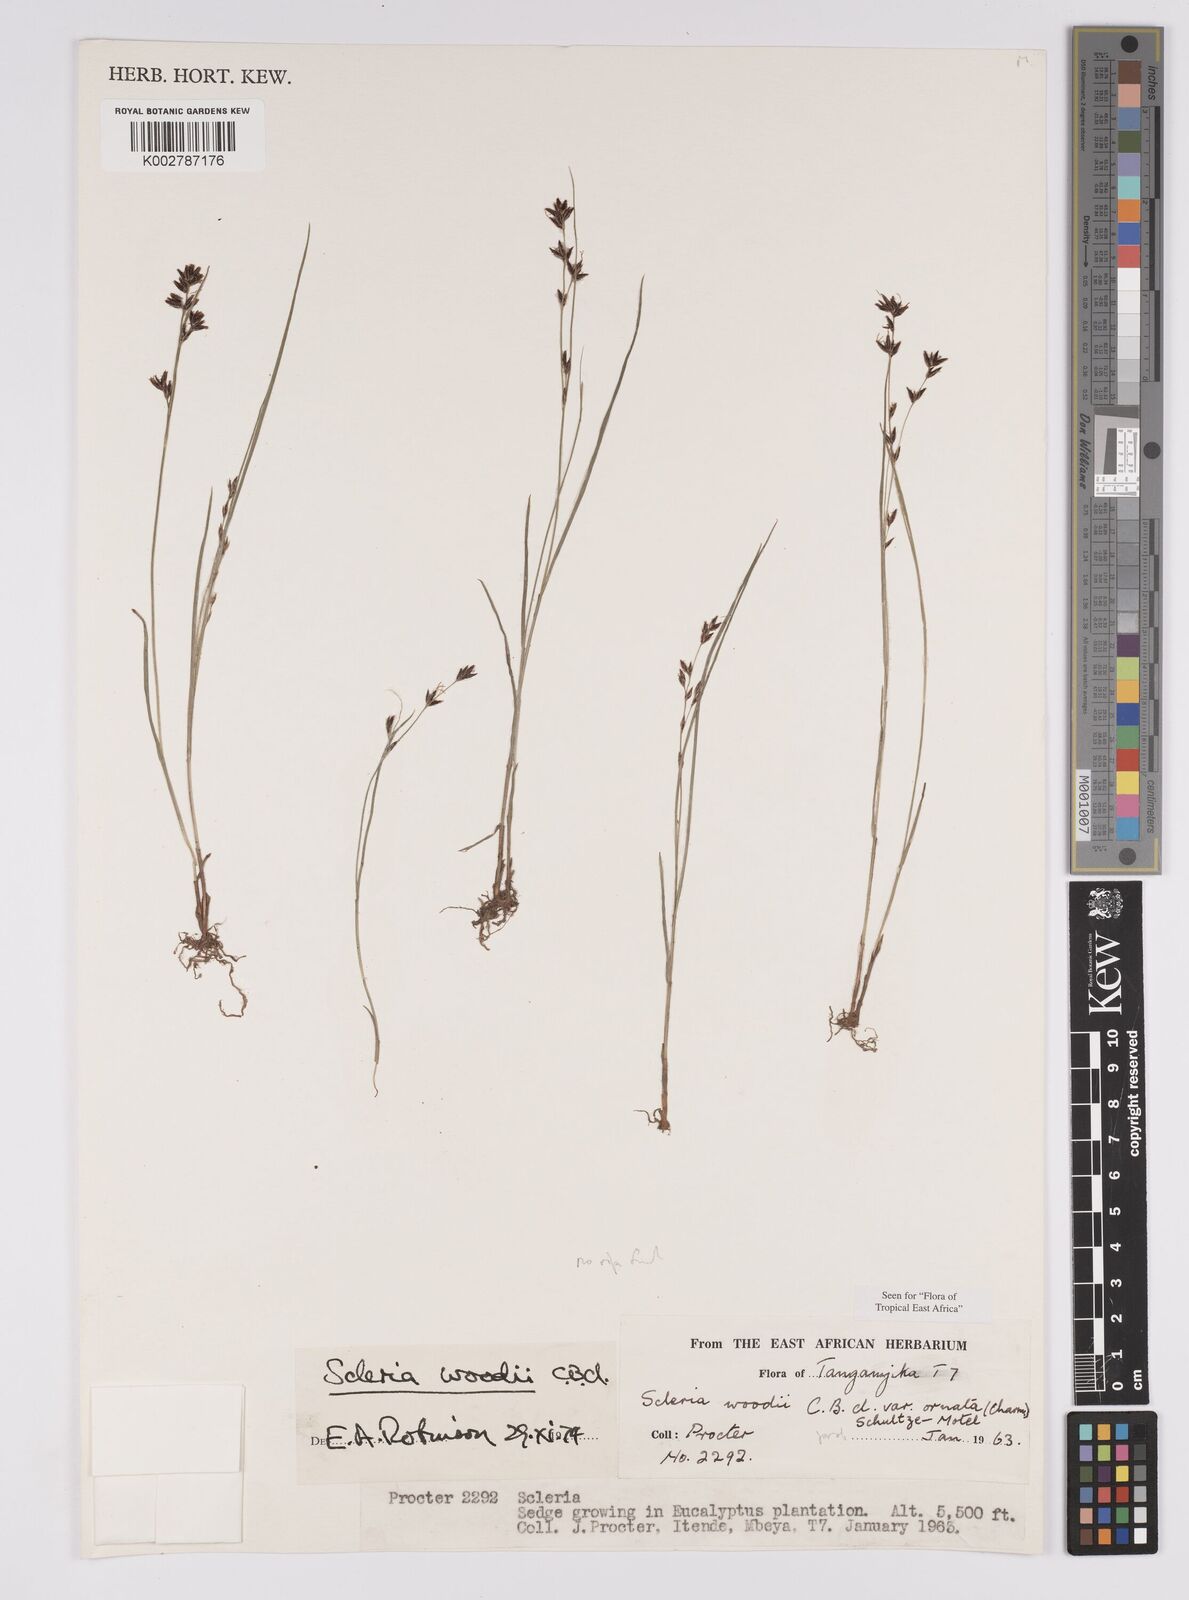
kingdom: Plantae
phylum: Tracheophyta
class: Liliopsida
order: Poales
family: Cyperaceae
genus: Scleria
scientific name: Scleria woodii
